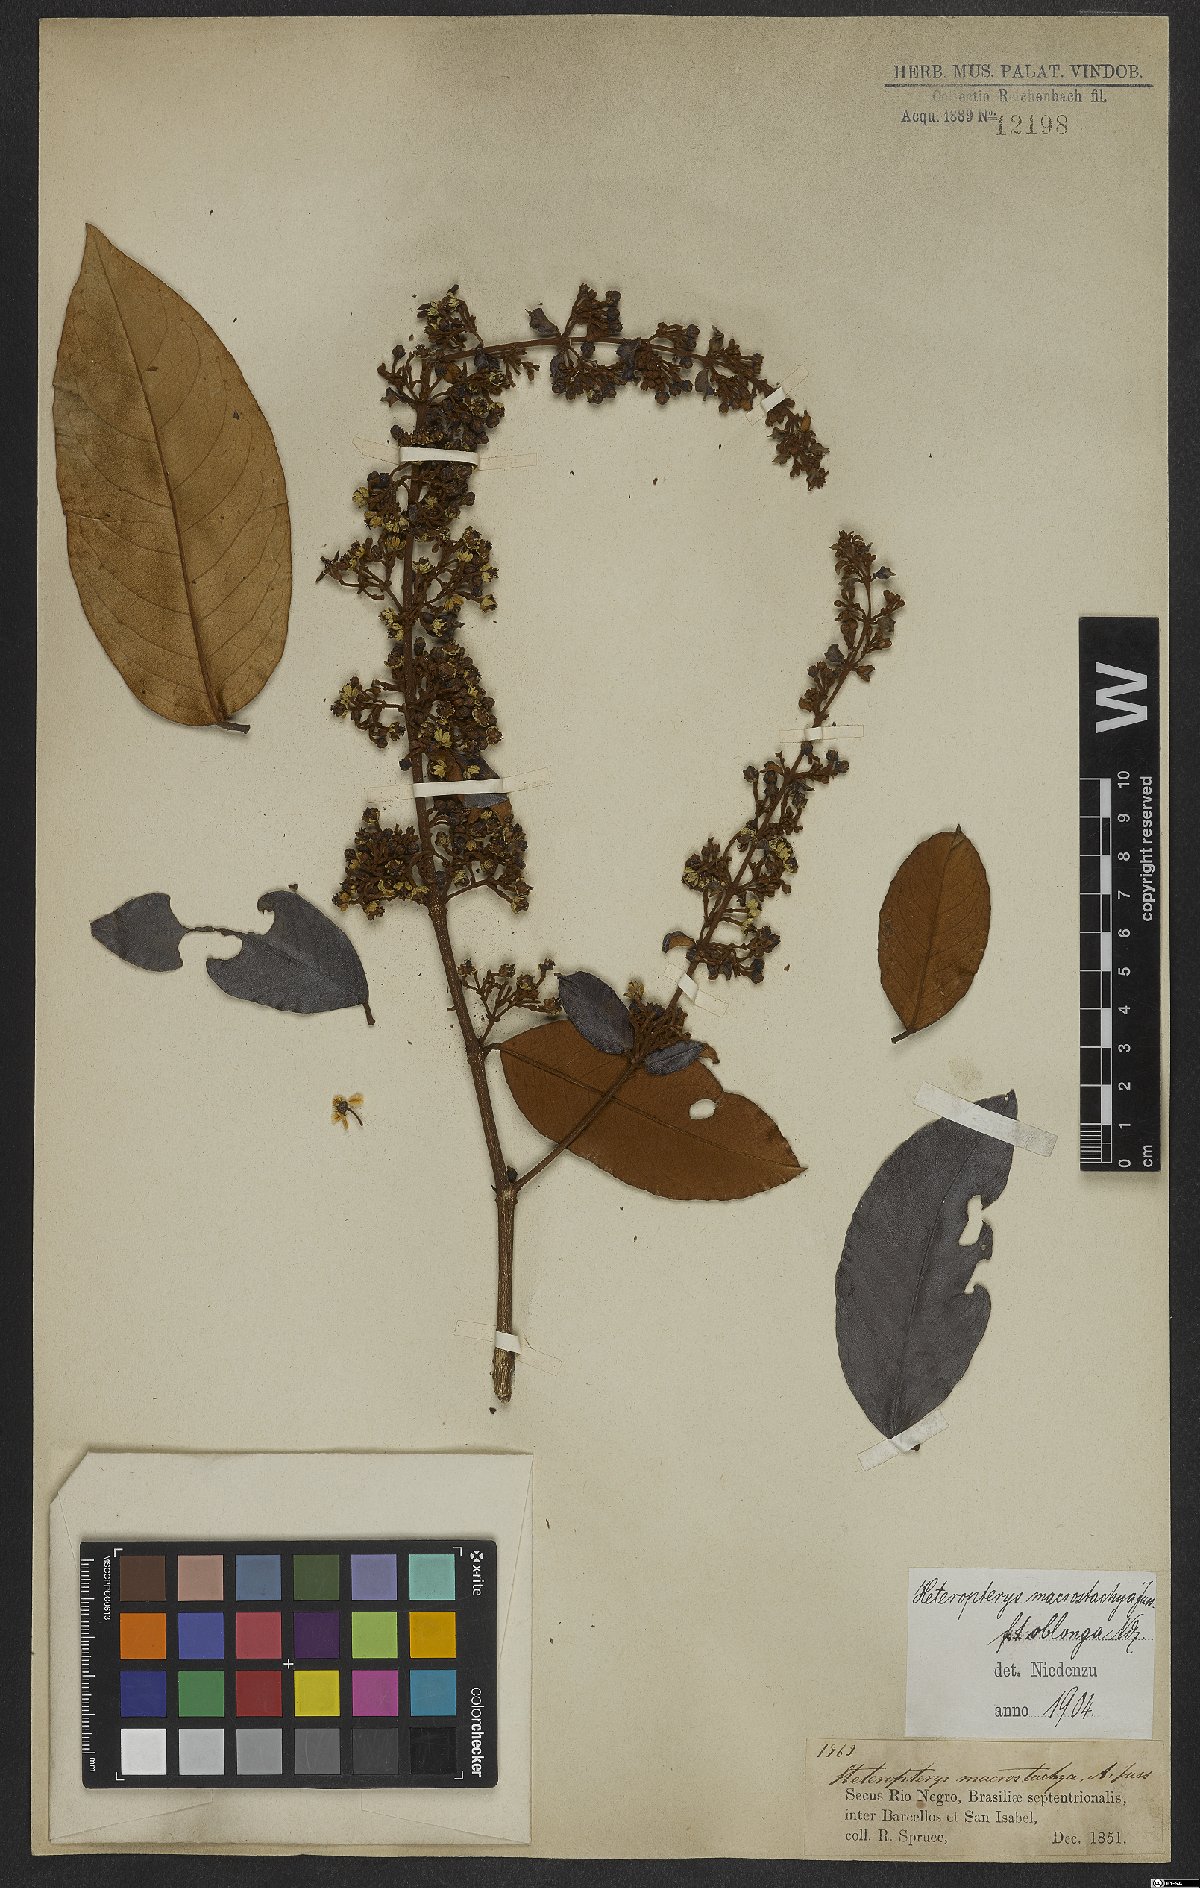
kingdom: Plantae
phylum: Tracheophyta
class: Magnoliopsida
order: Malpighiales
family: Malpighiaceae
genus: Heteropterys
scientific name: Heteropterys macrostachya
